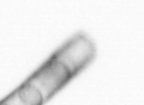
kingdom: Chromista
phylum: Ochrophyta
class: Bacillariophyceae
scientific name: Bacillariophyceae
